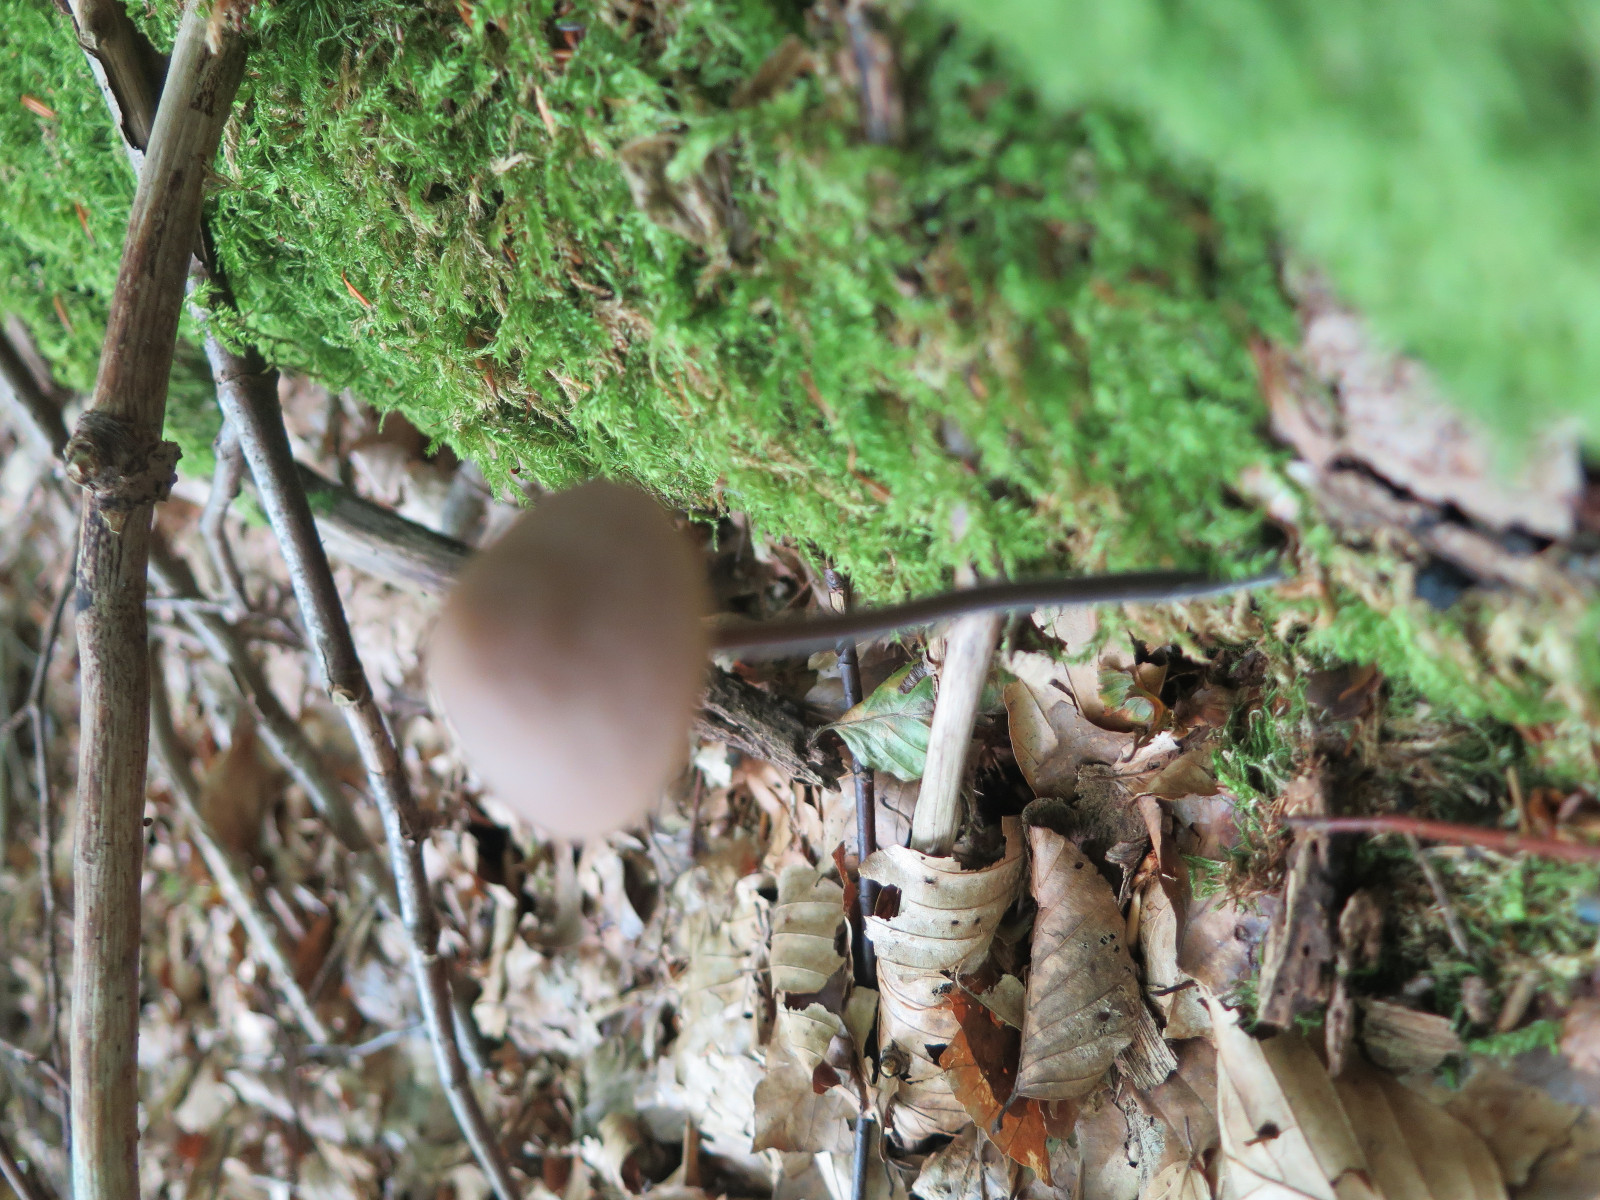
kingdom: Fungi
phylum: Basidiomycota
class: Agaricomycetes
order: Agaricales
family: Omphalotaceae
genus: Mycetinis
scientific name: Mycetinis alliaceus
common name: stor løghat
